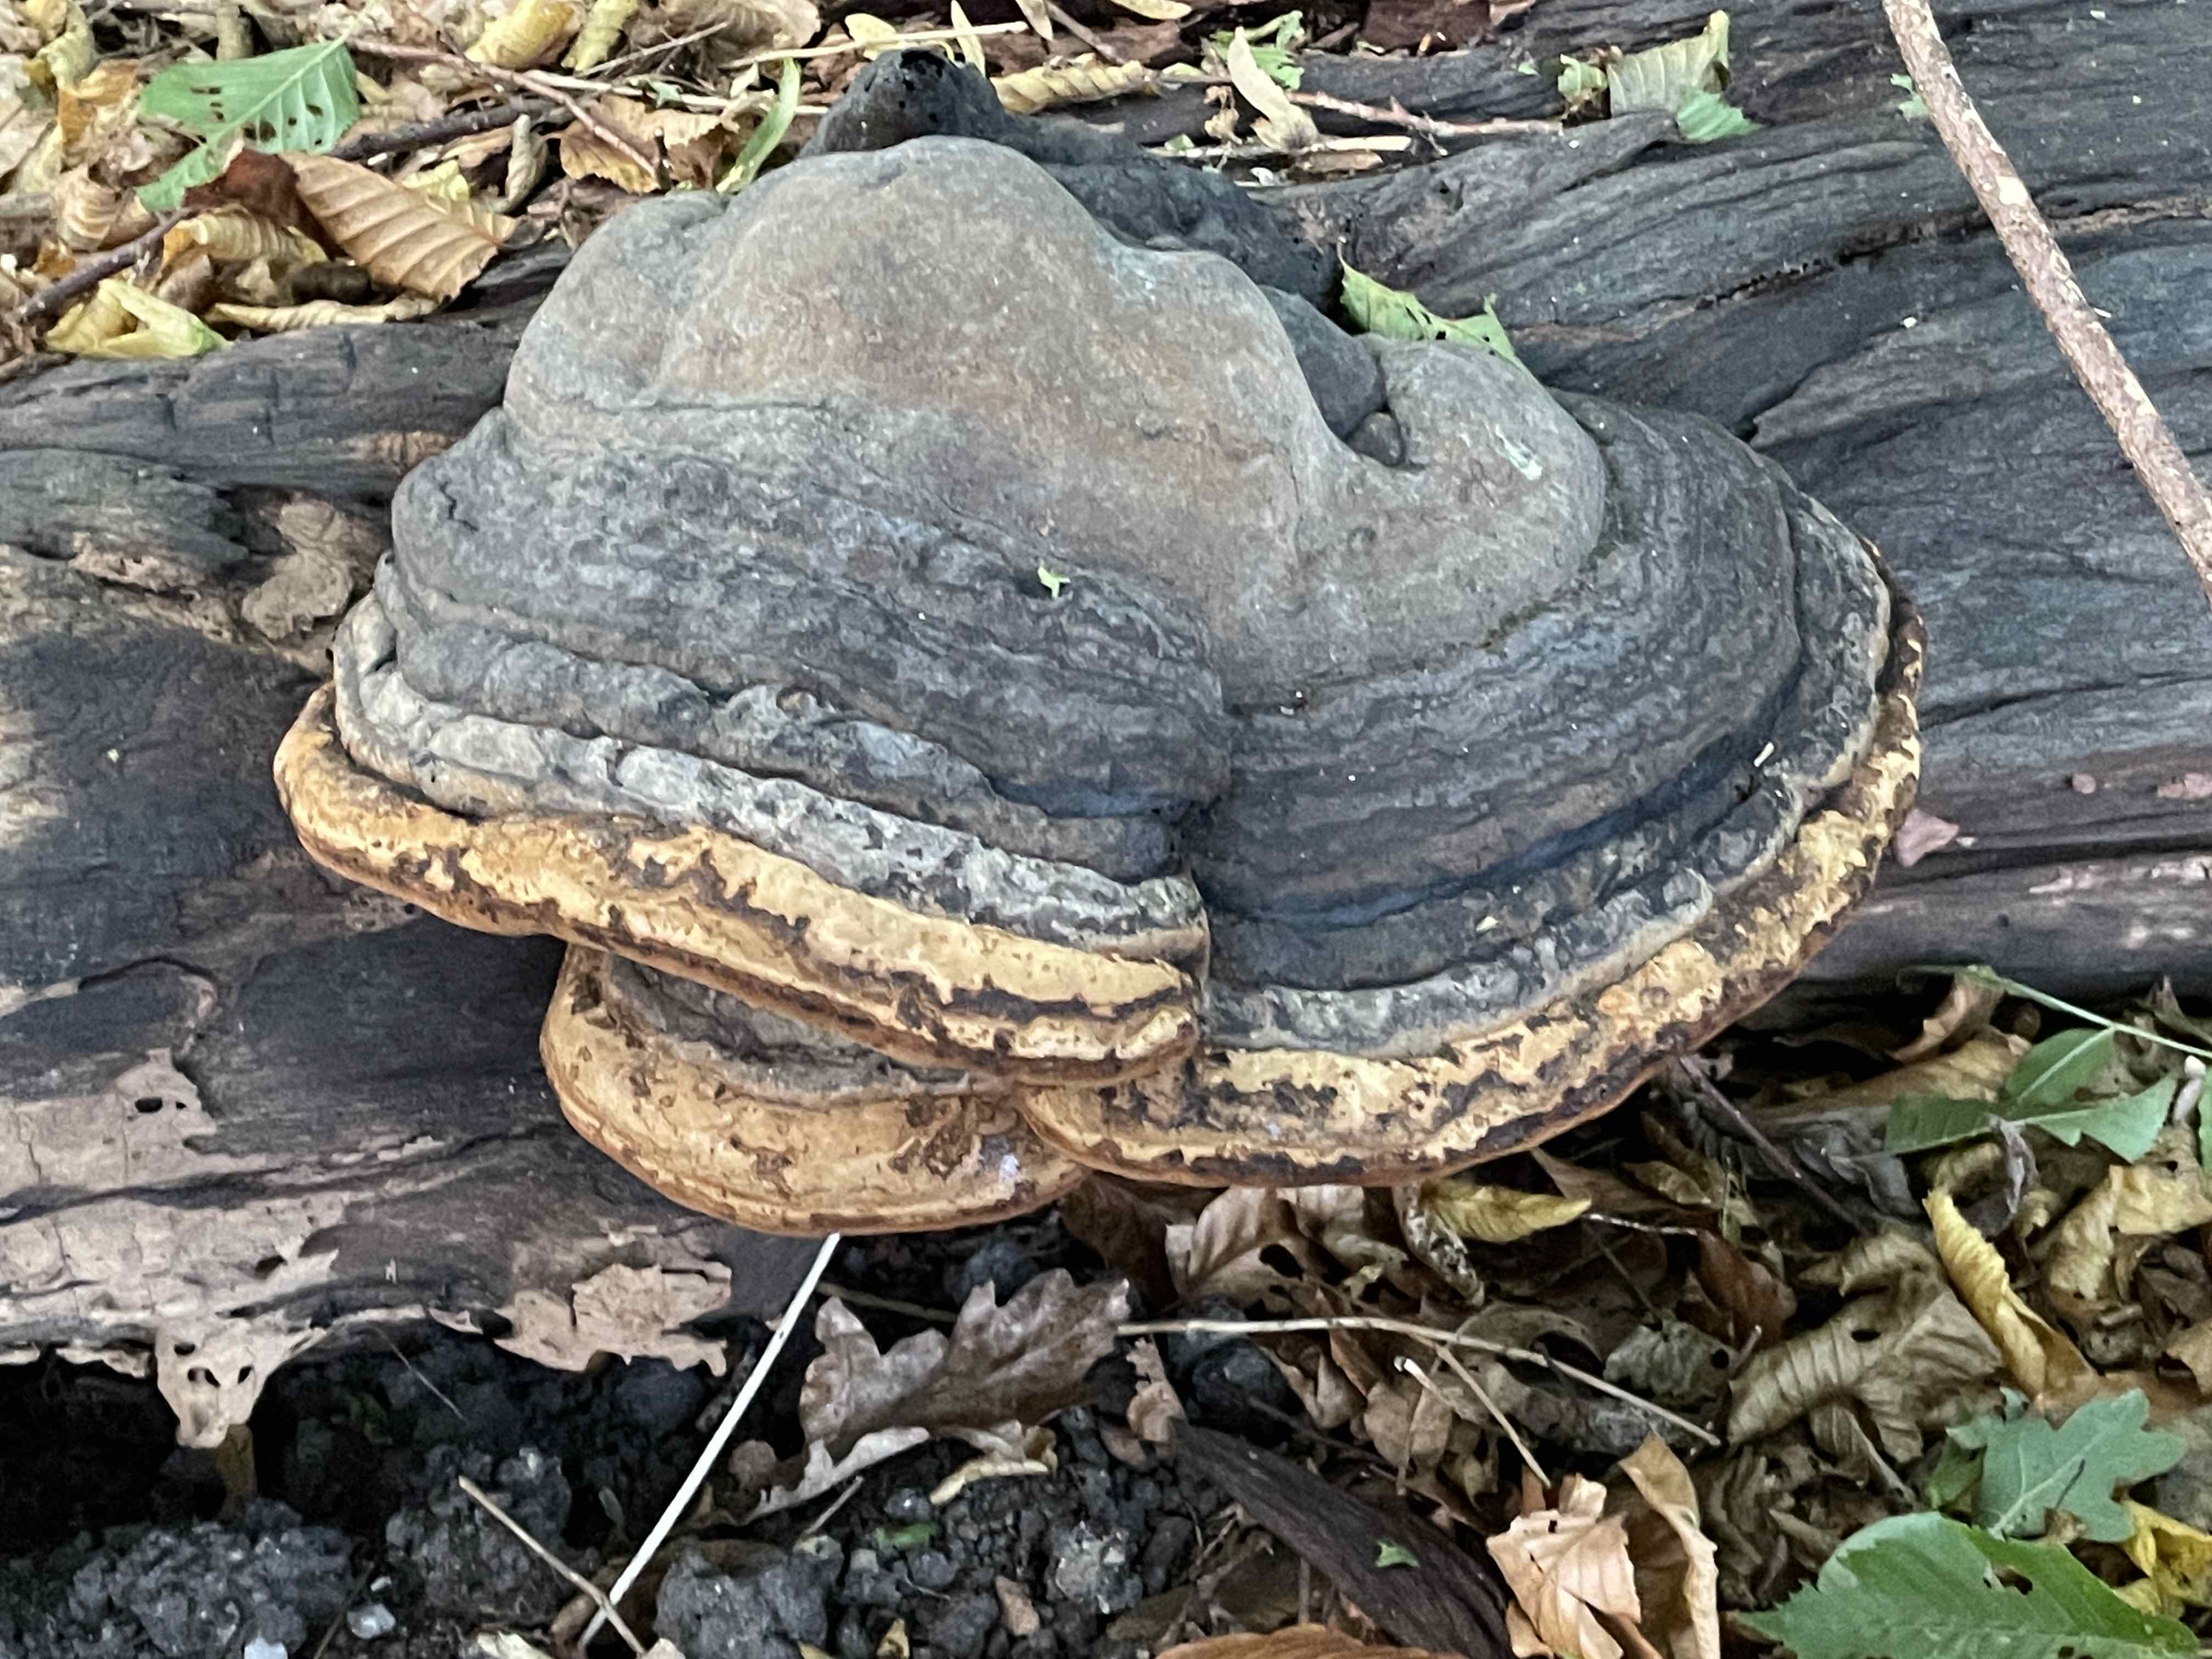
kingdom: Fungi
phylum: Basidiomycota
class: Agaricomycetes
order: Polyporales
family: Polyporaceae
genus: Fomes
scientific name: Fomes fomentarius
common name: tøndersvamp
